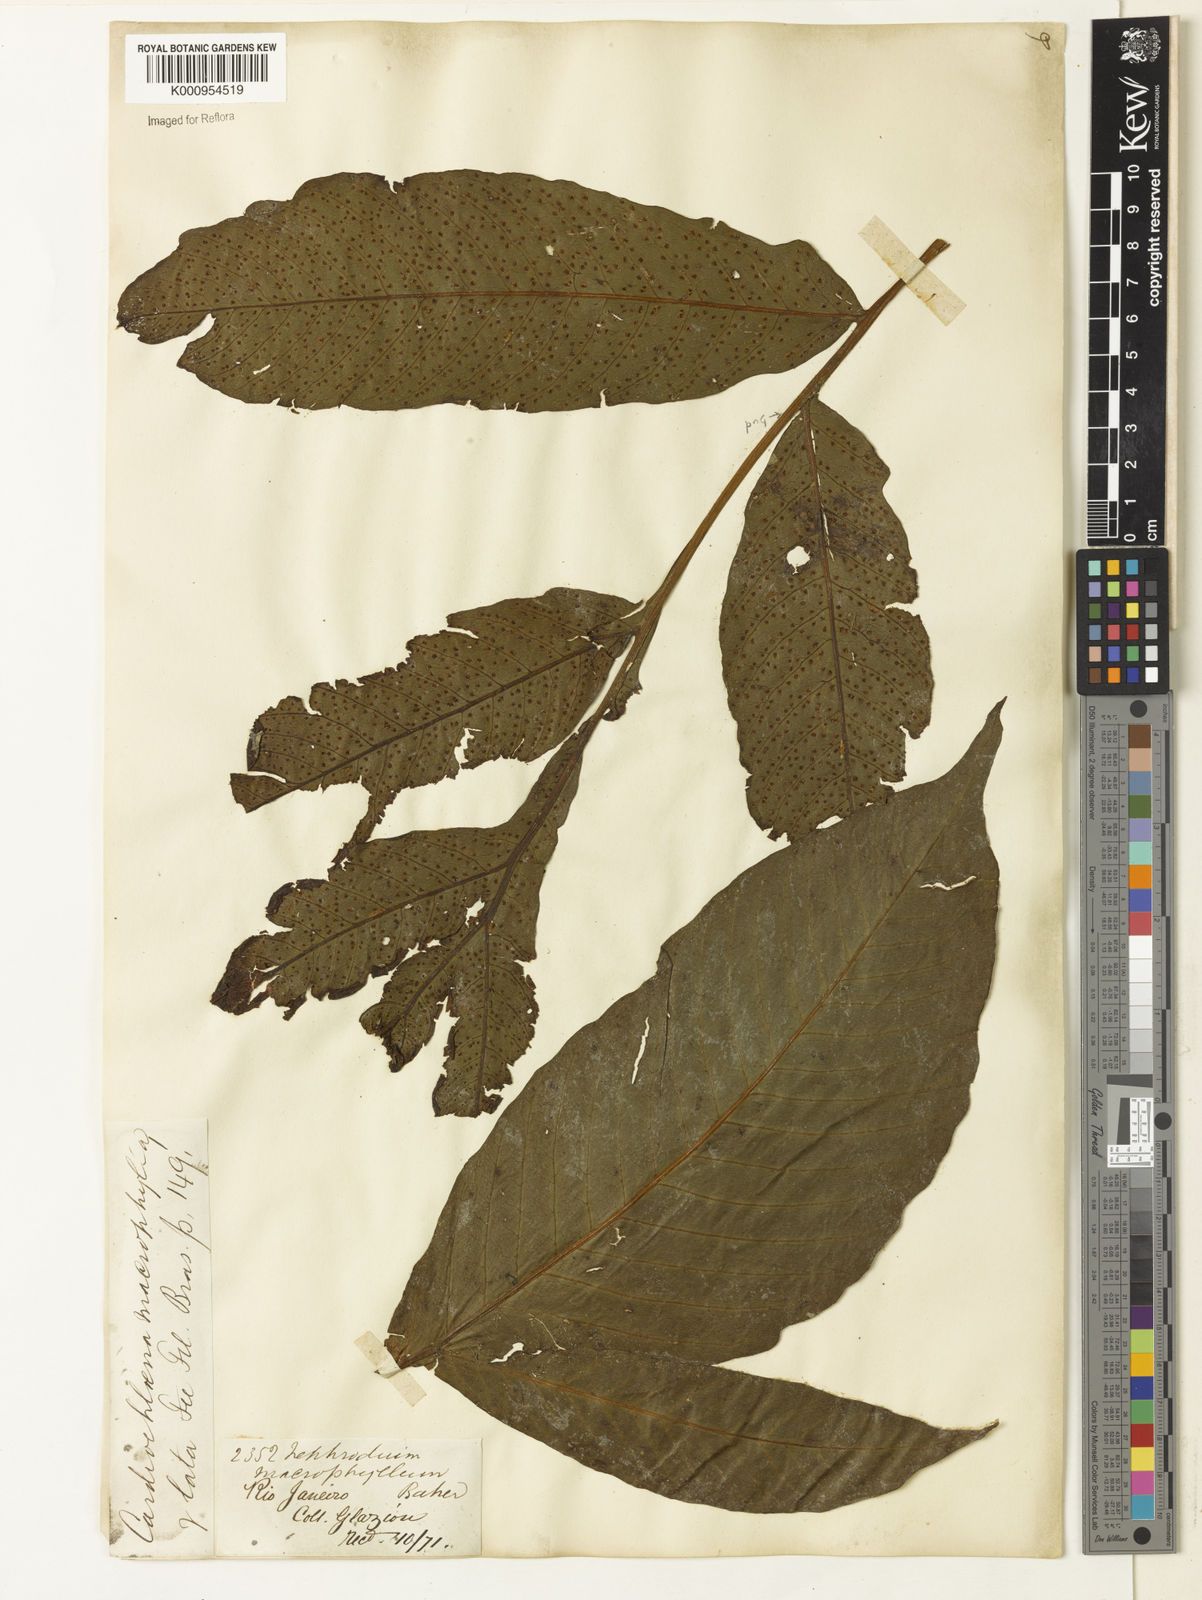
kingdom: Plantae
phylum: Tracheophyta
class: Polypodiopsida
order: Polypodiales
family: Tectariaceae
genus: Tectaria
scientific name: Tectaria incisa
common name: Incised halberd fern
